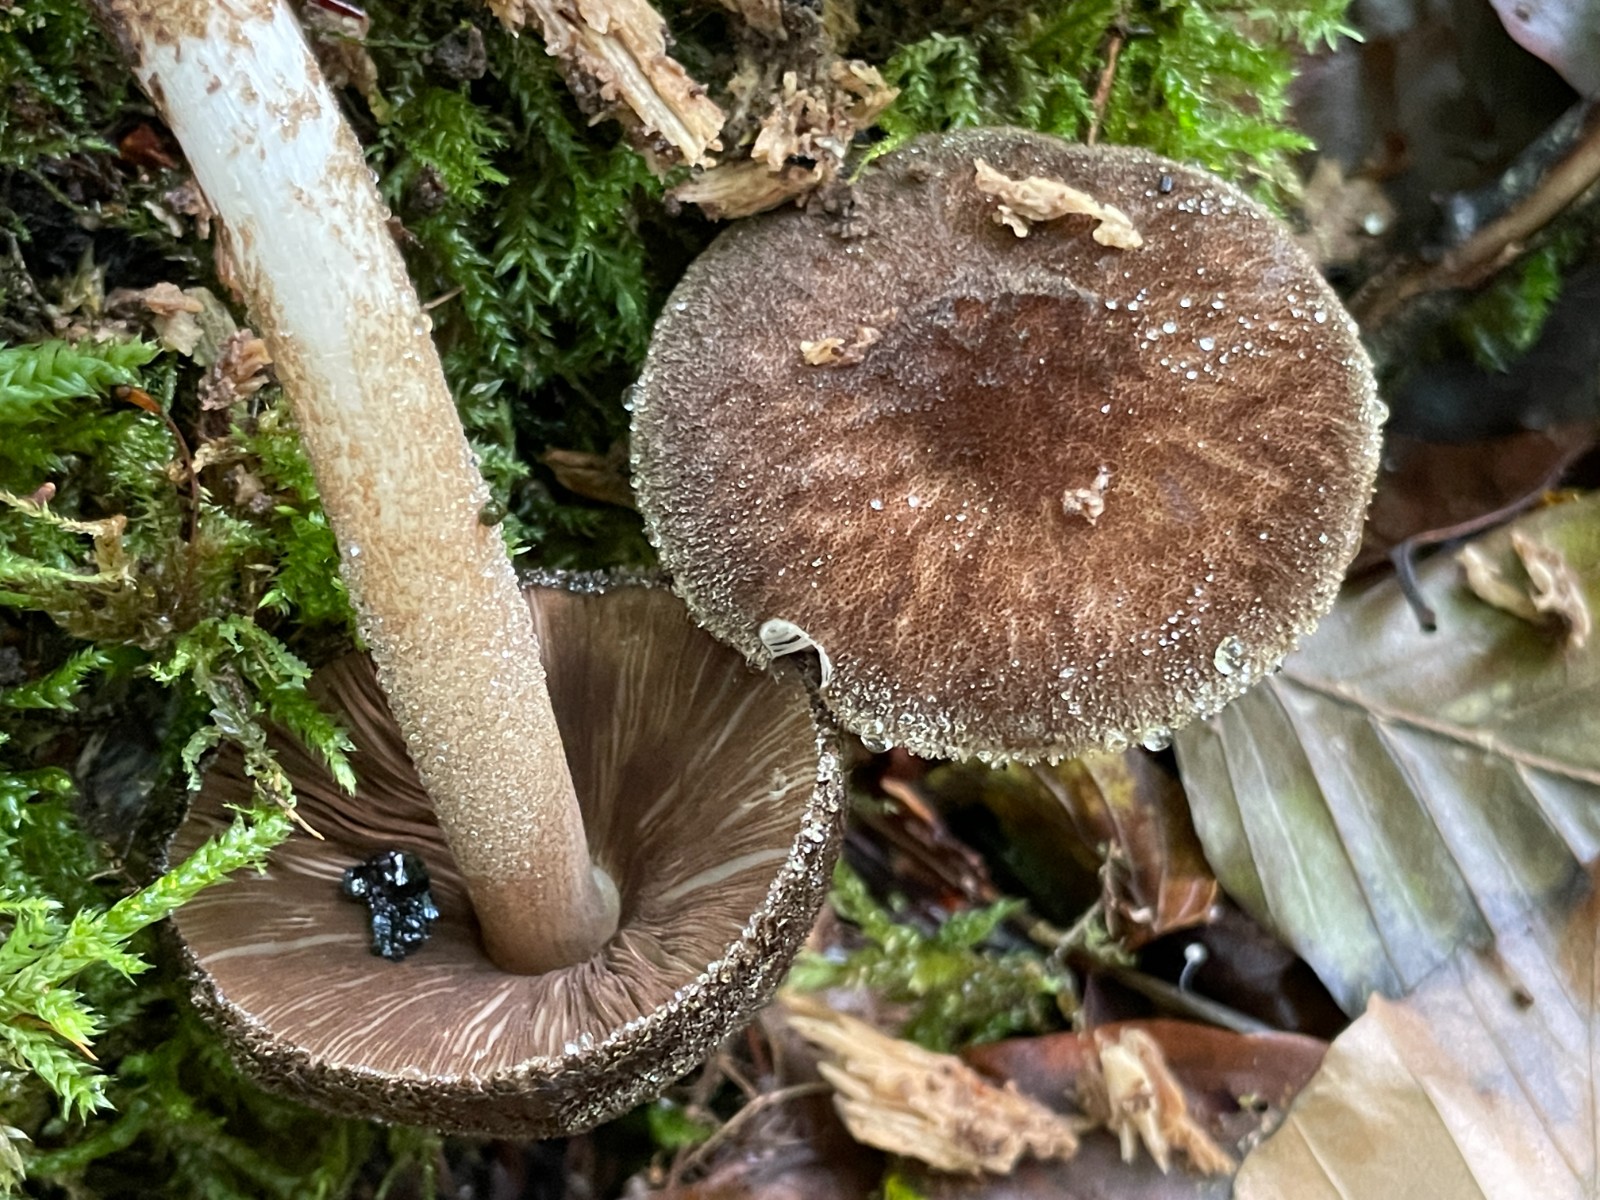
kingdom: Fungi
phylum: Basidiomycota
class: Agaricomycetes
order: Agaricales
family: Pluteaceae
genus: Pluteus
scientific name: Pluteus umbrosus
